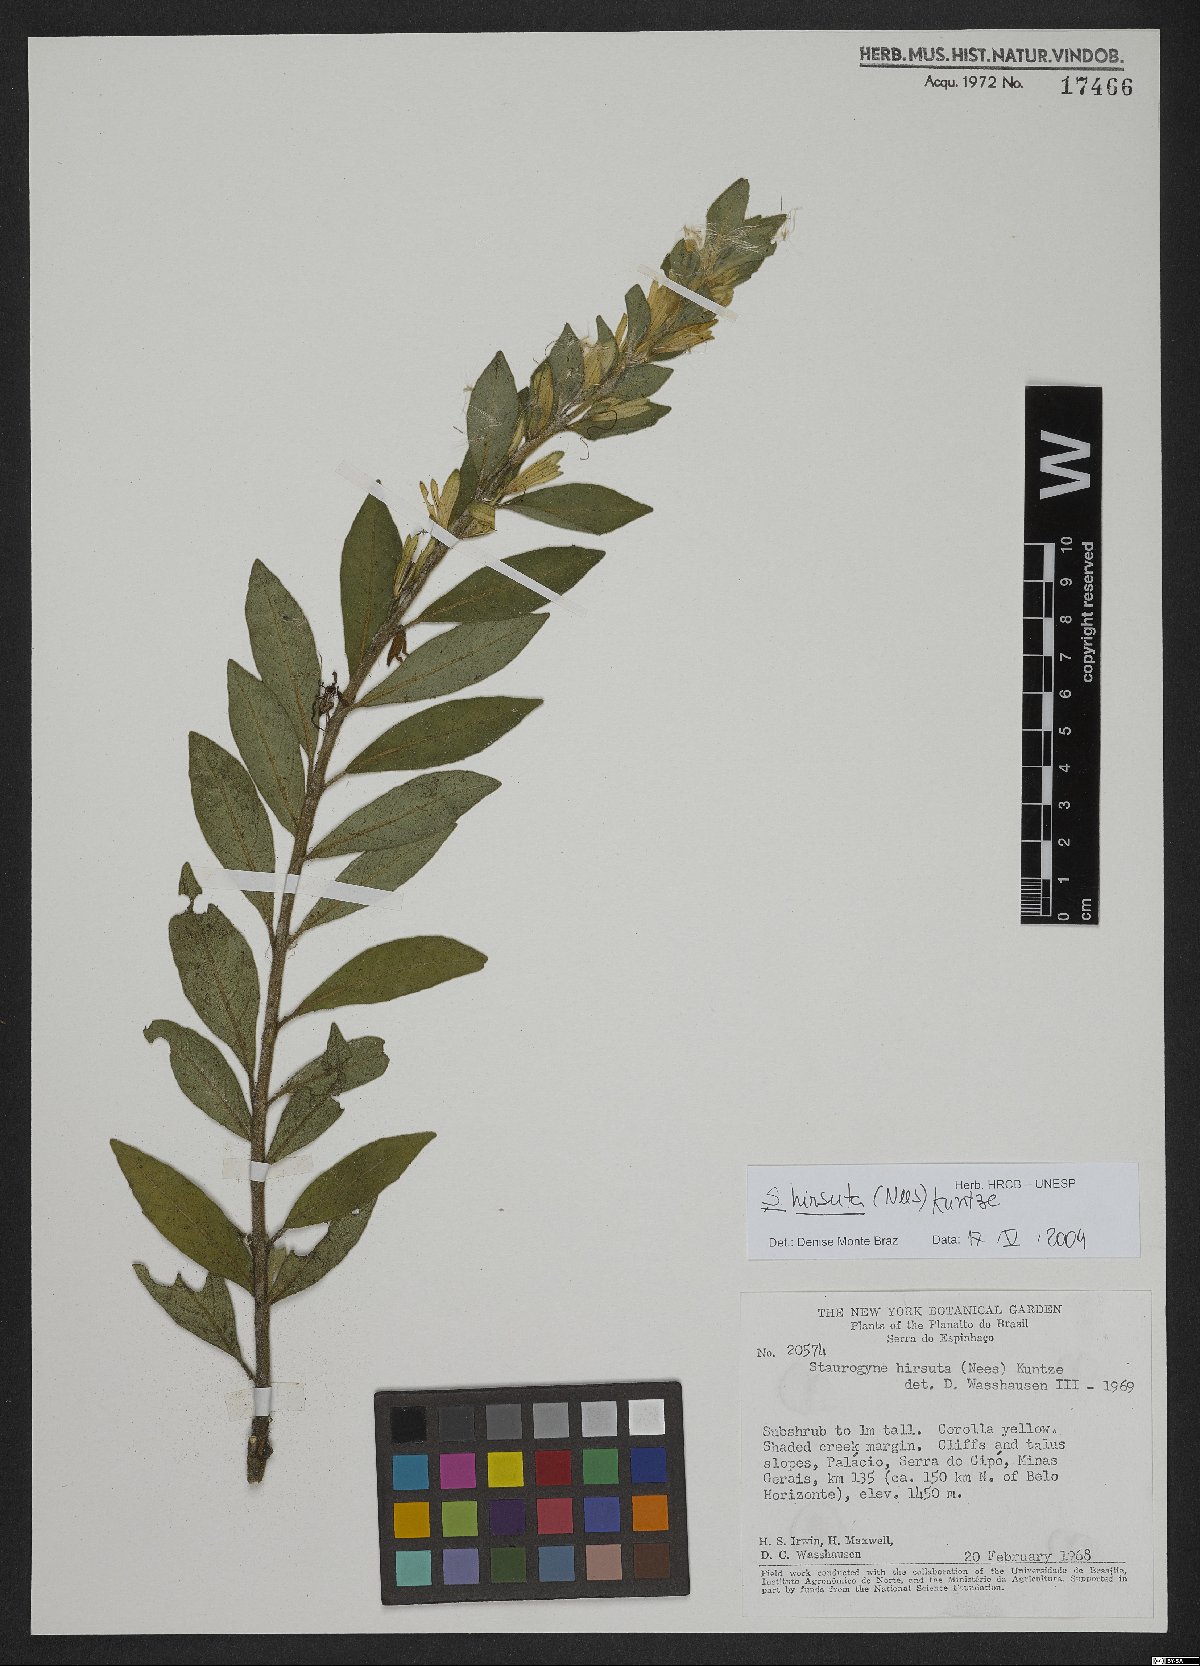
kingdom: Plantae
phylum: Tracheophyta
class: Magnoliopsida
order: Lamiales
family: Acanthaceae
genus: Staurogyne
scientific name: Staurogyne hirsuta
